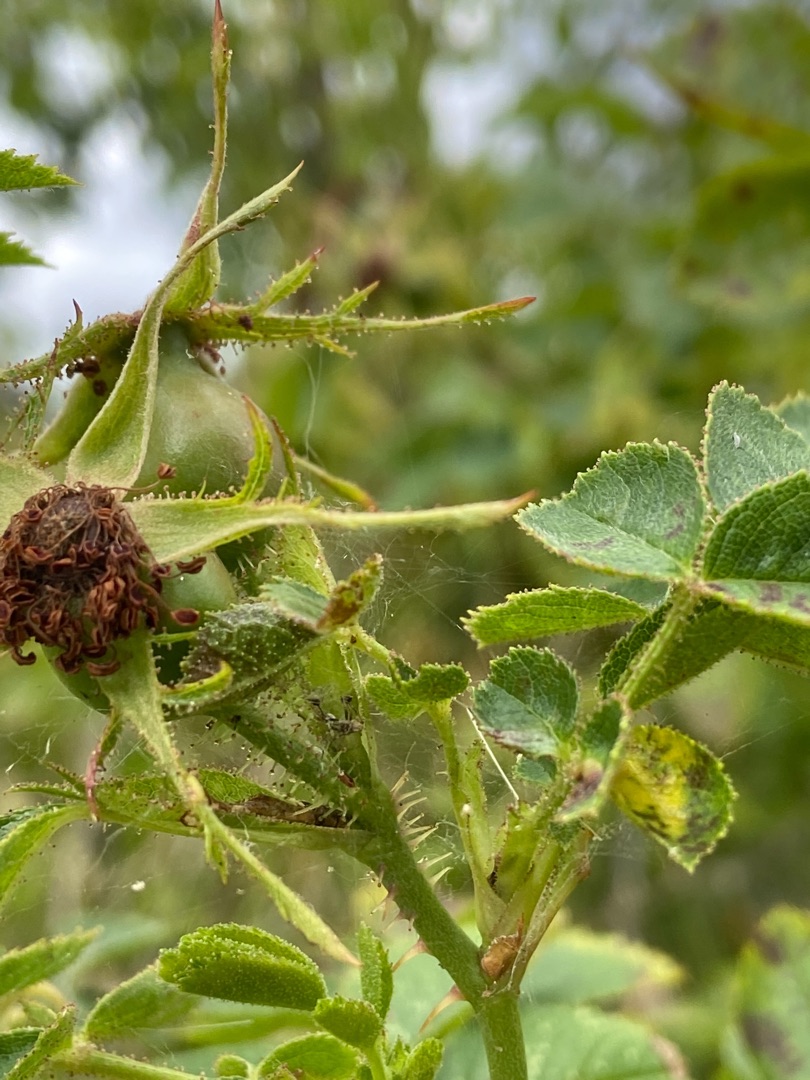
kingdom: Plantae
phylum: Tracheophyta
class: Magnoliopsida
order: Rosales
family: Rosaceae
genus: Rosa
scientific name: Rosa rubiginosa
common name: Æble-rose
